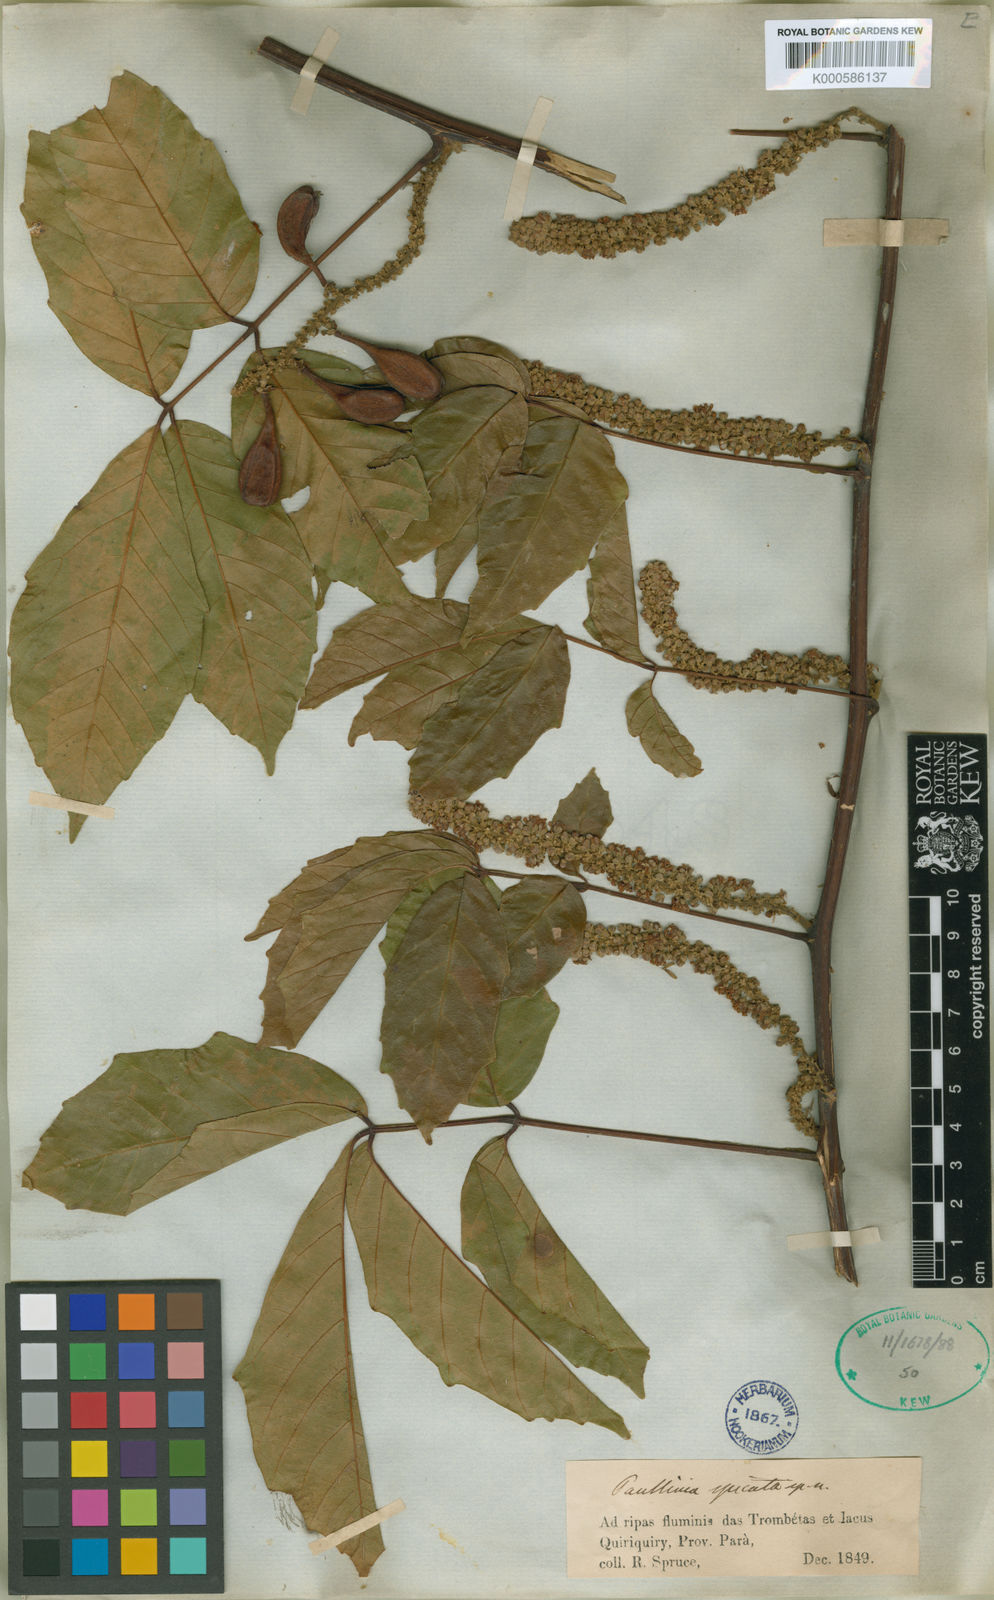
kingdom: Plantae
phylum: Tracheophyta
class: Magnoliopsida
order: Sapindales
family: Sapindaceae
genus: Paullinia
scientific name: Paullinia spicata
